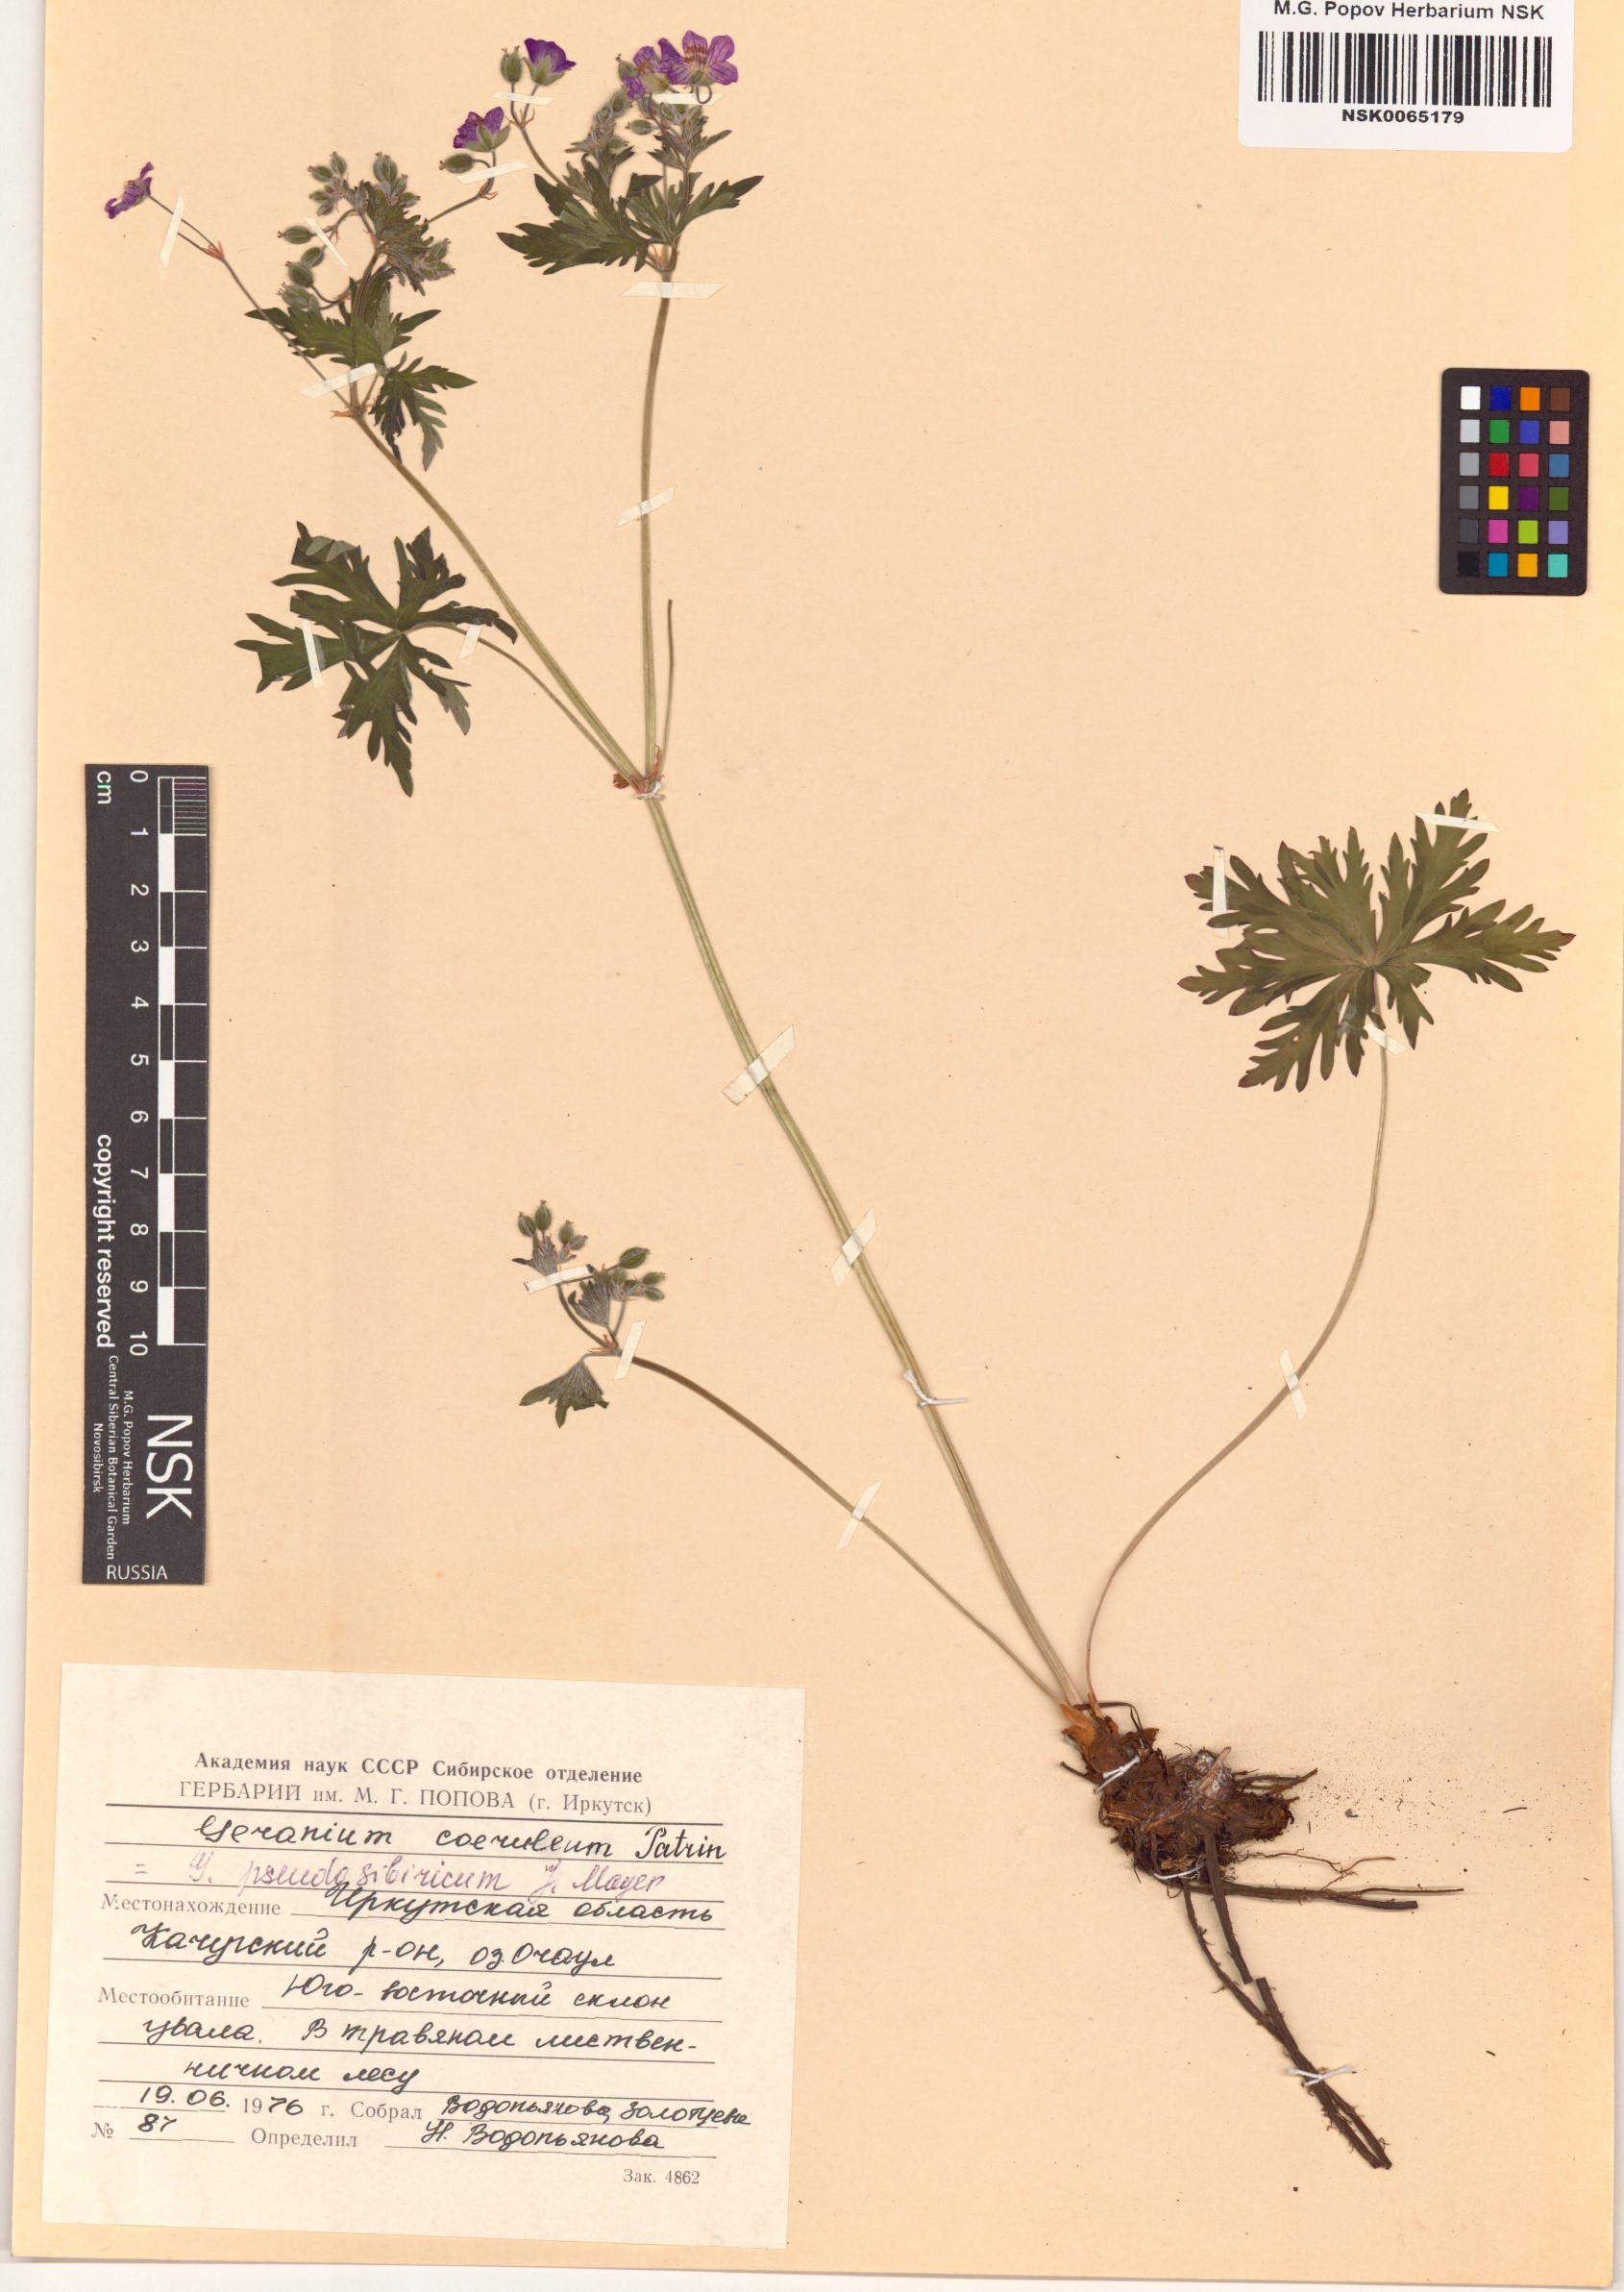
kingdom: Plantae
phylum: Tracheophyta
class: Magnoliopsida
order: Geraniales
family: Geraniaceae
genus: Geranium
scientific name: Geranium pseudosibiricum
